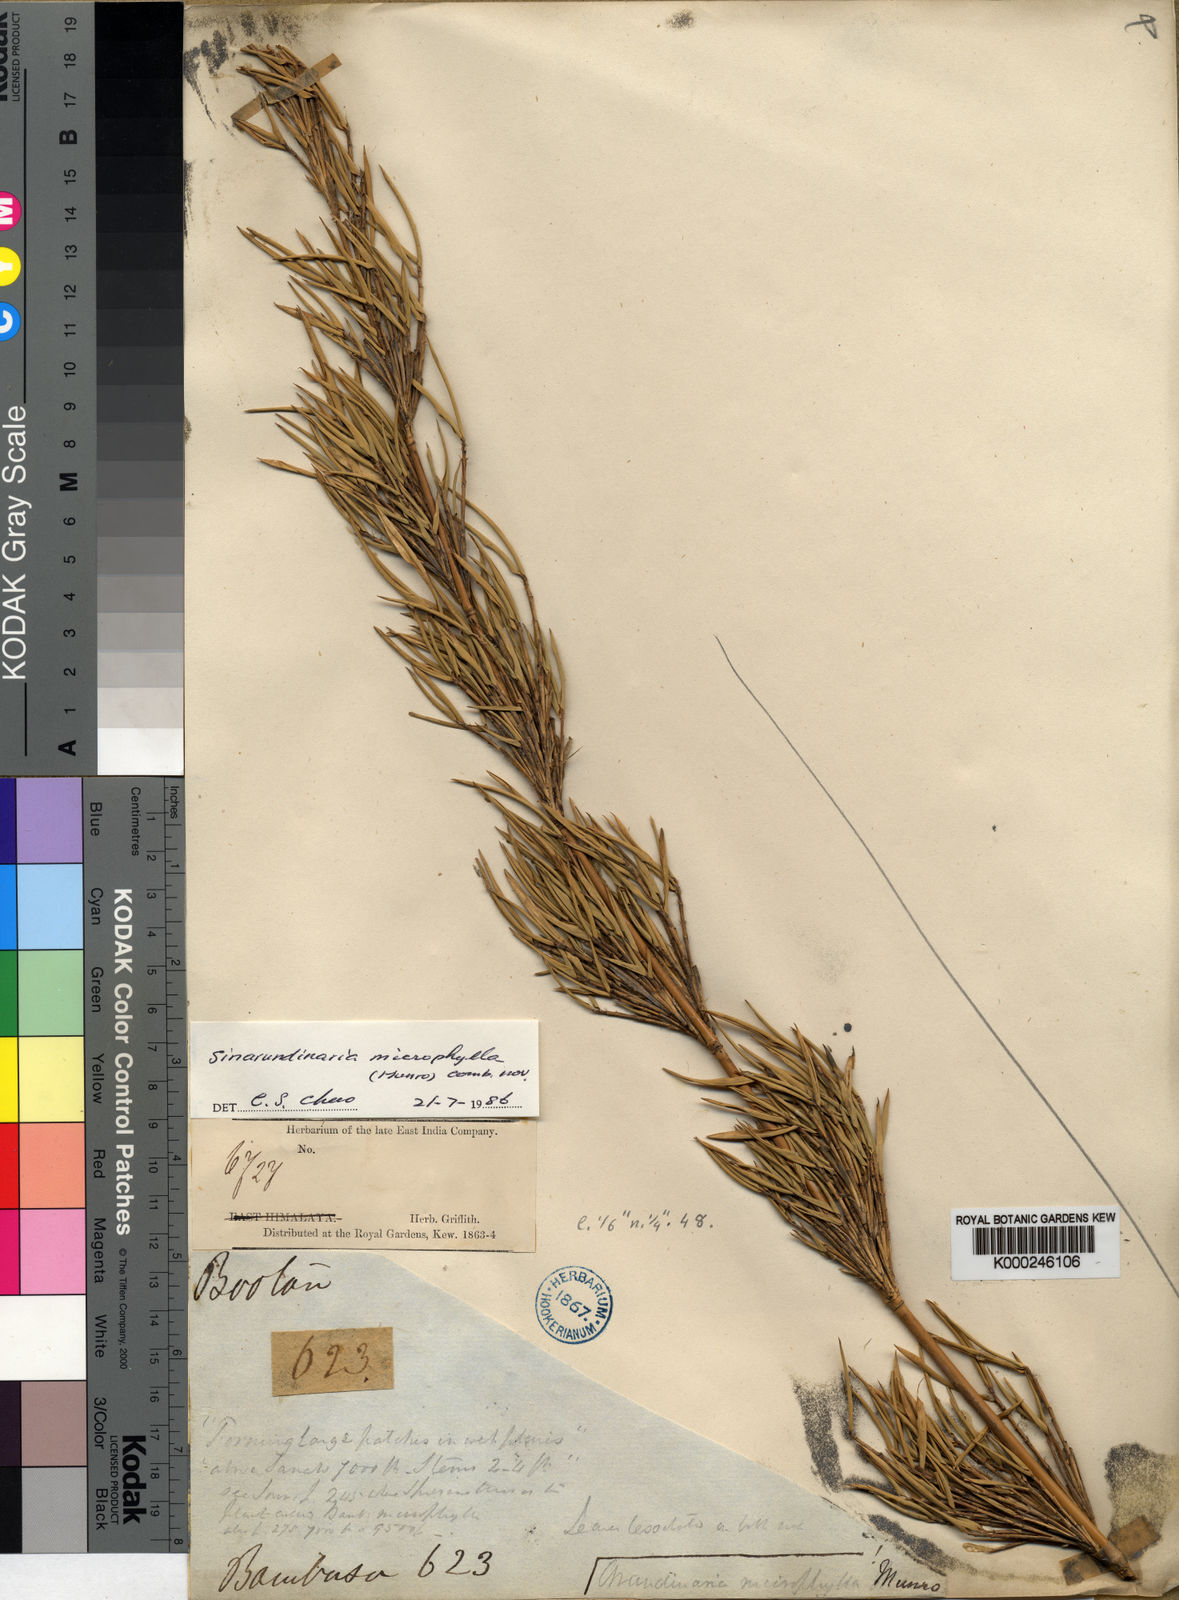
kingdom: Plantae
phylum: Tracheophyta
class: Liliopsida
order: Poales
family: Poaceae
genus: Yushania
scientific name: Yushania microphylla
